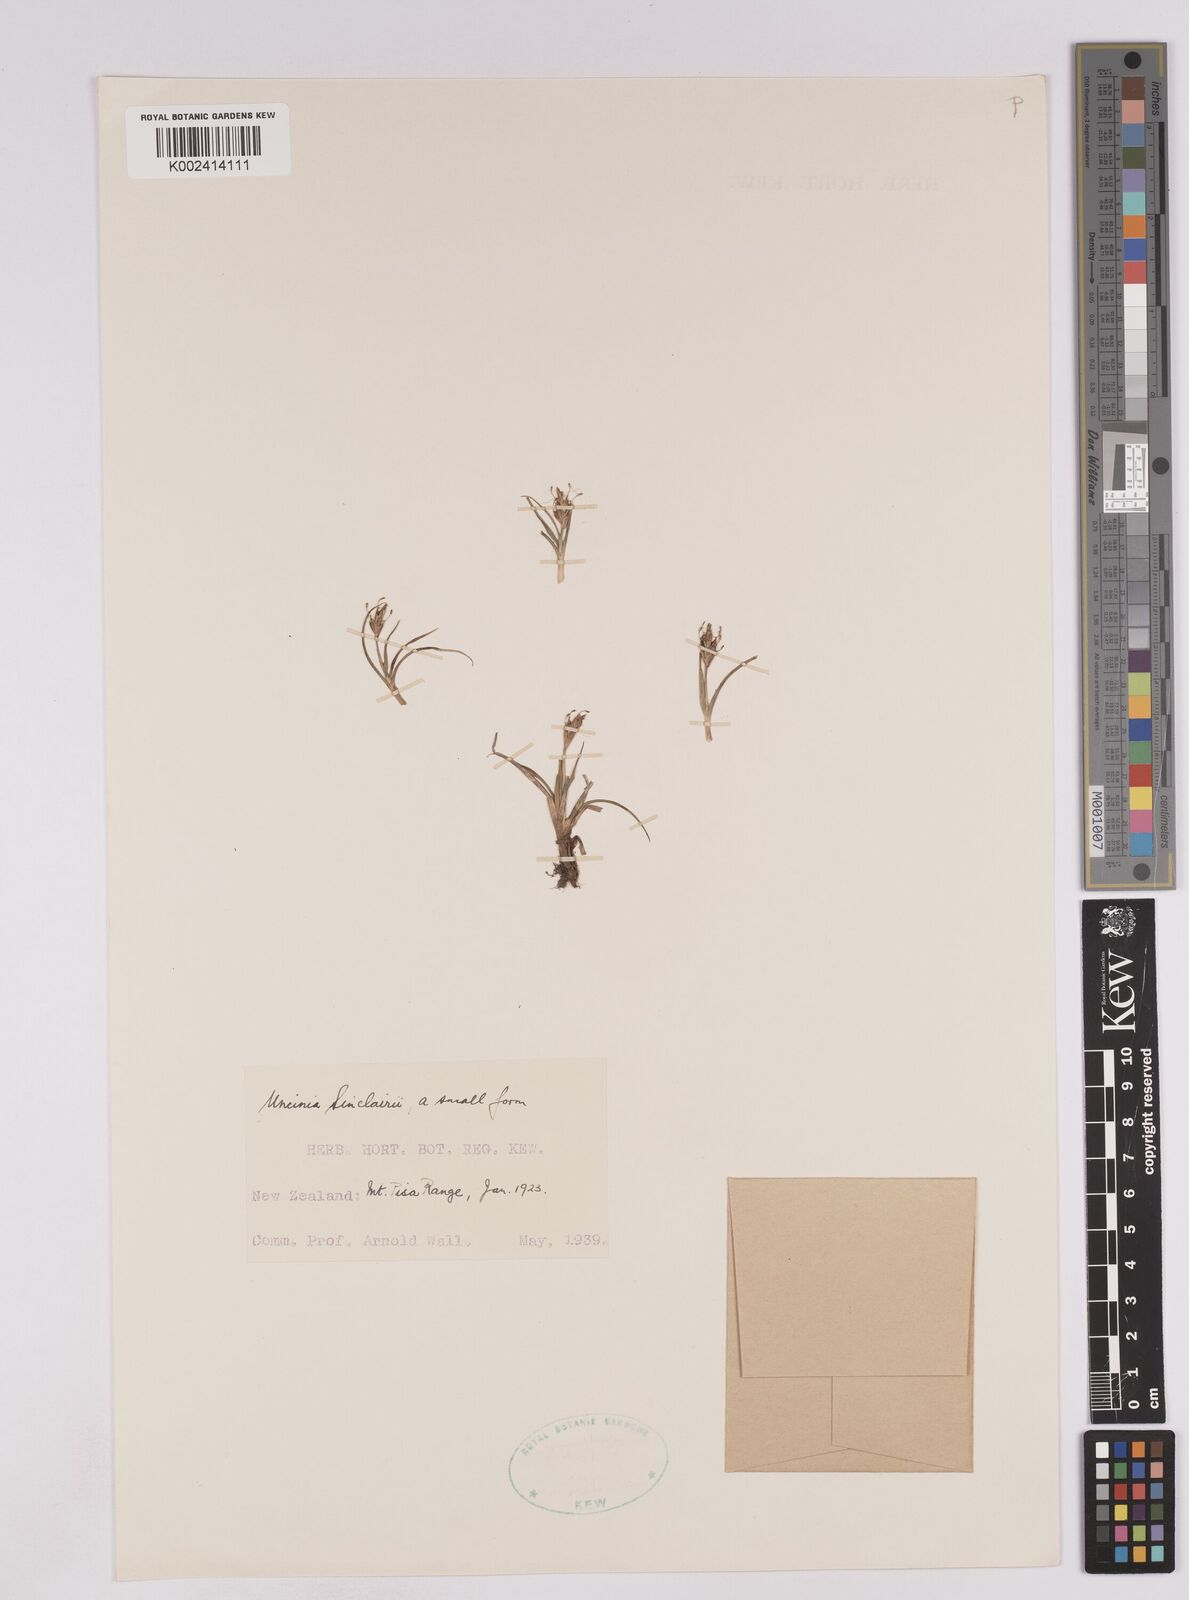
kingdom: Plantae
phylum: Tracheophyta
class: Liliopsida
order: Poales
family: Cyperaceae
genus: Carex
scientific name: Carex parvispica
